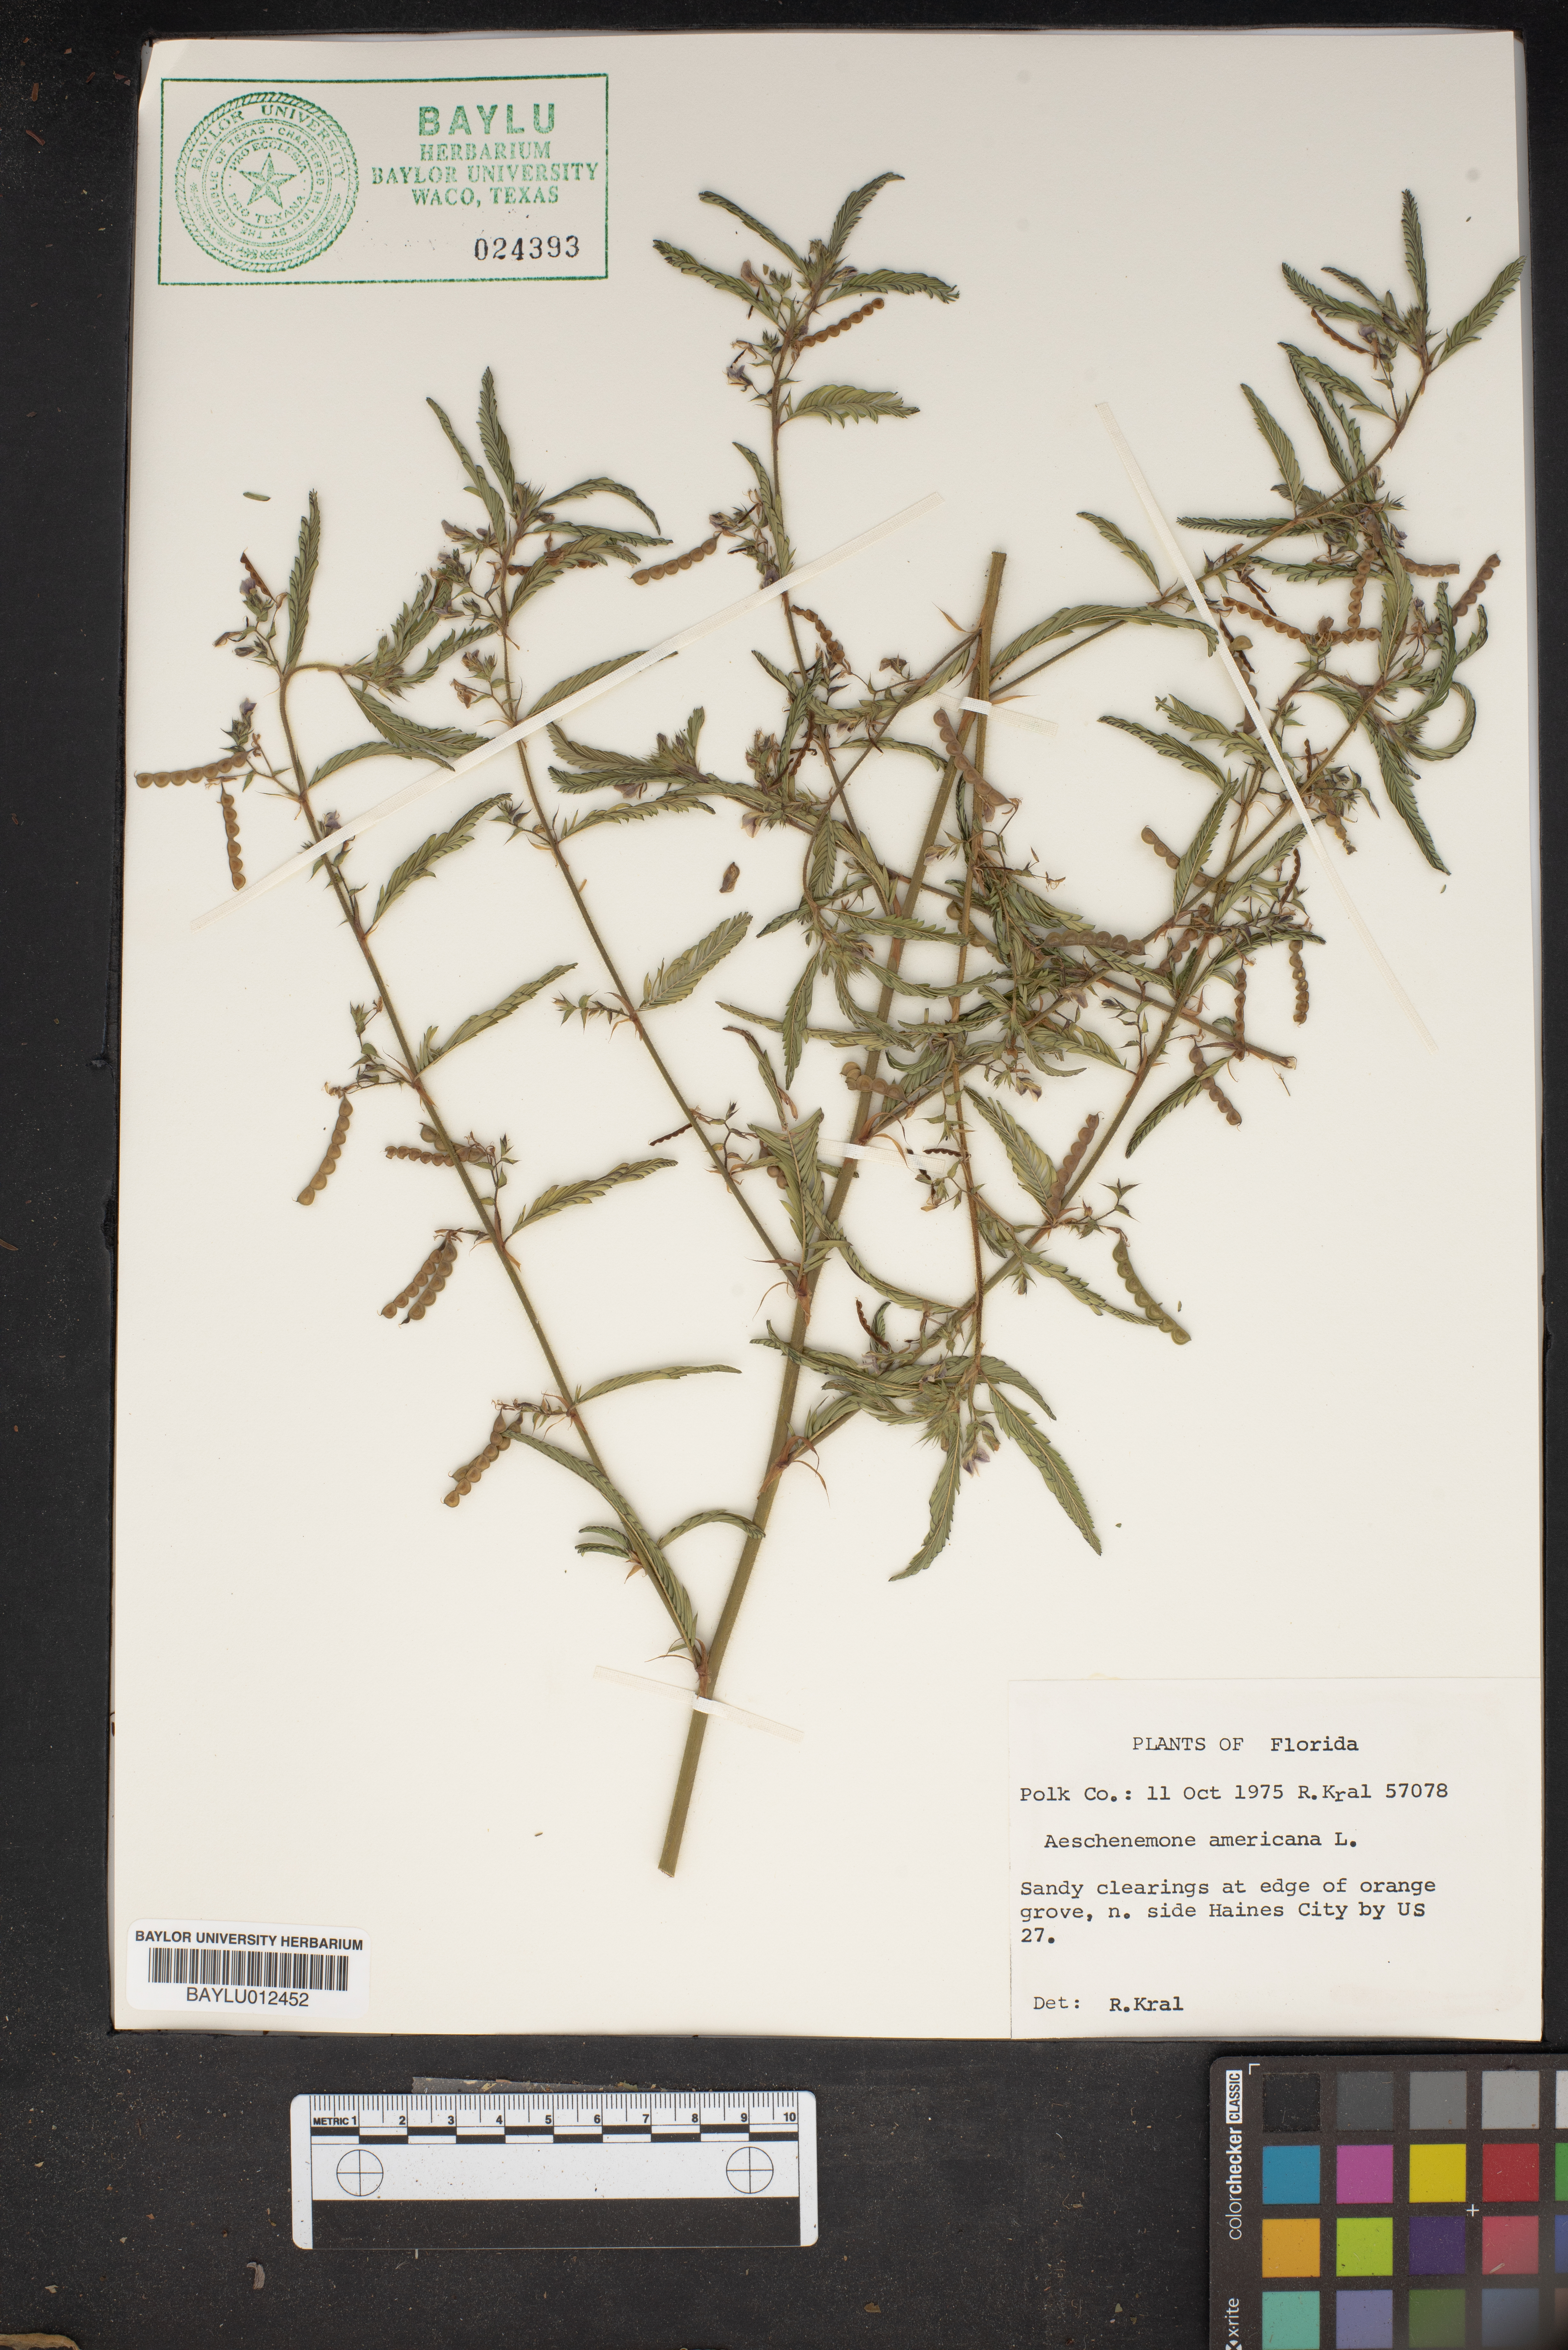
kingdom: Plantae
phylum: Tracheophyta
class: Magnoliopsida
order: Fabales
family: Fabaceae
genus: Aeschynomene
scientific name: Aeschynomene americana
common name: Joint-vetch
